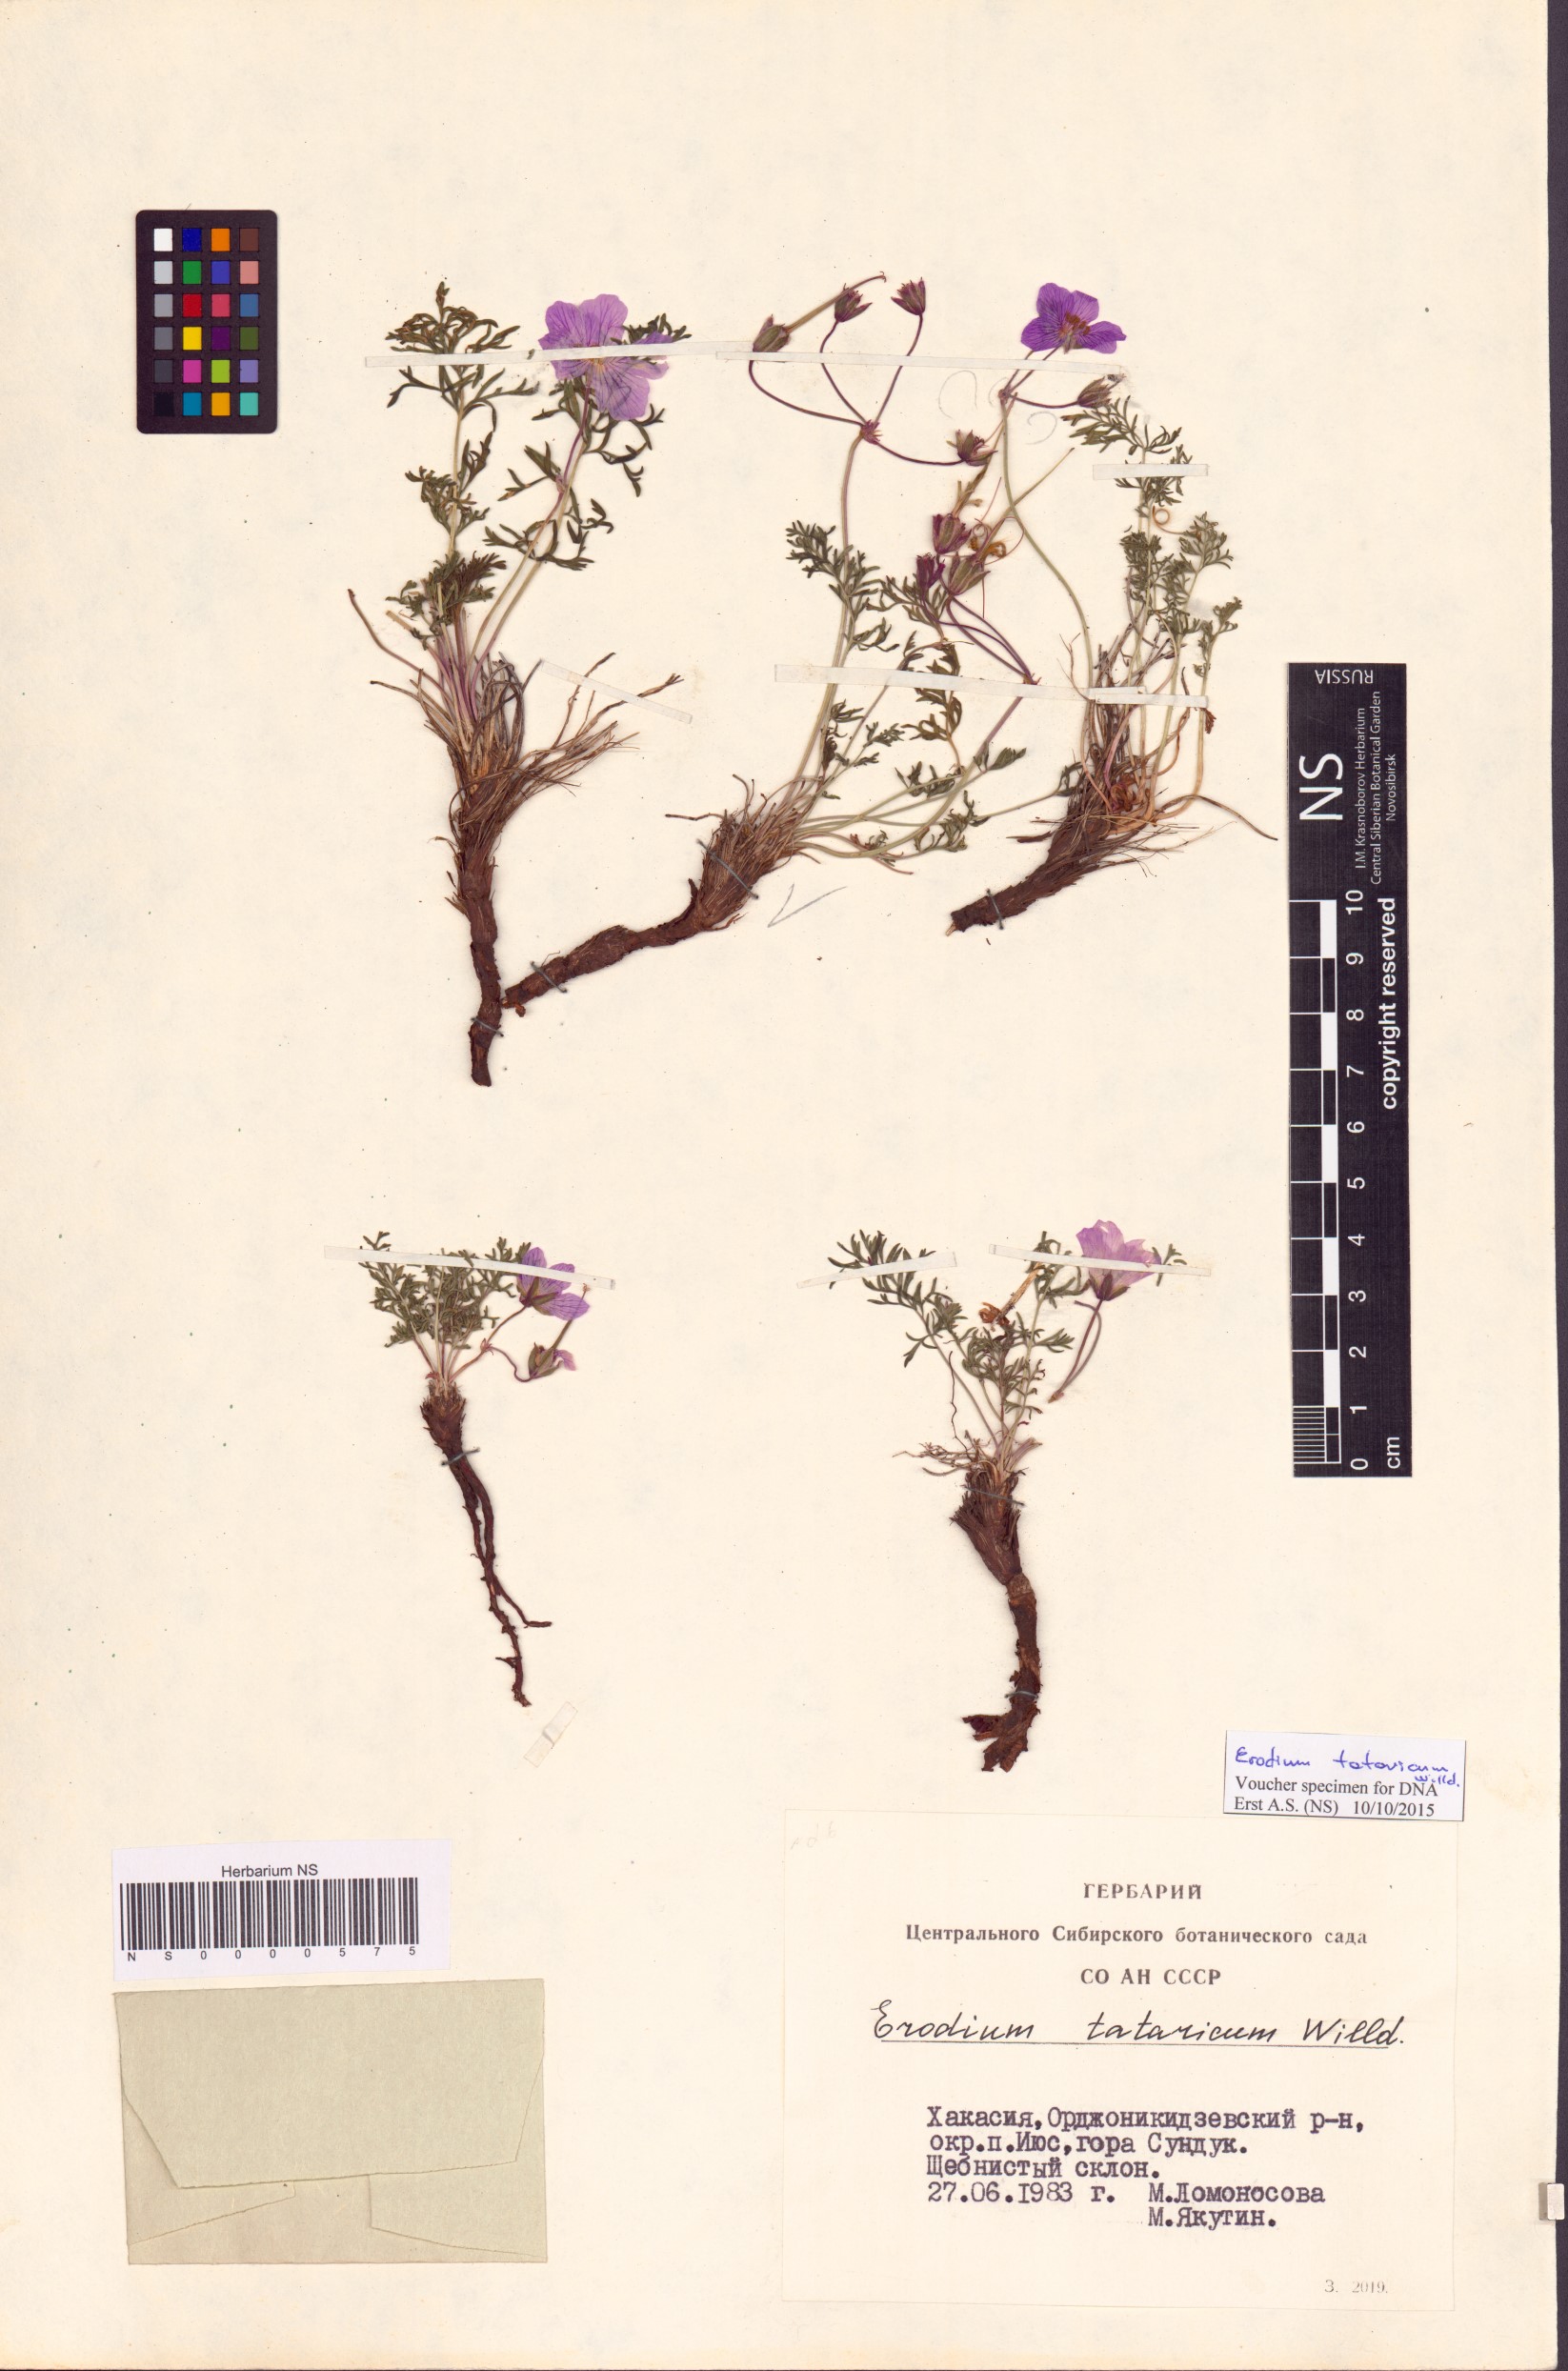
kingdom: Plantae
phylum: Tracheophyta
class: Magnoliopsida
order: Geraniales
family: Geraniaceae
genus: Erodium
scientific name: Erodium tataricum
